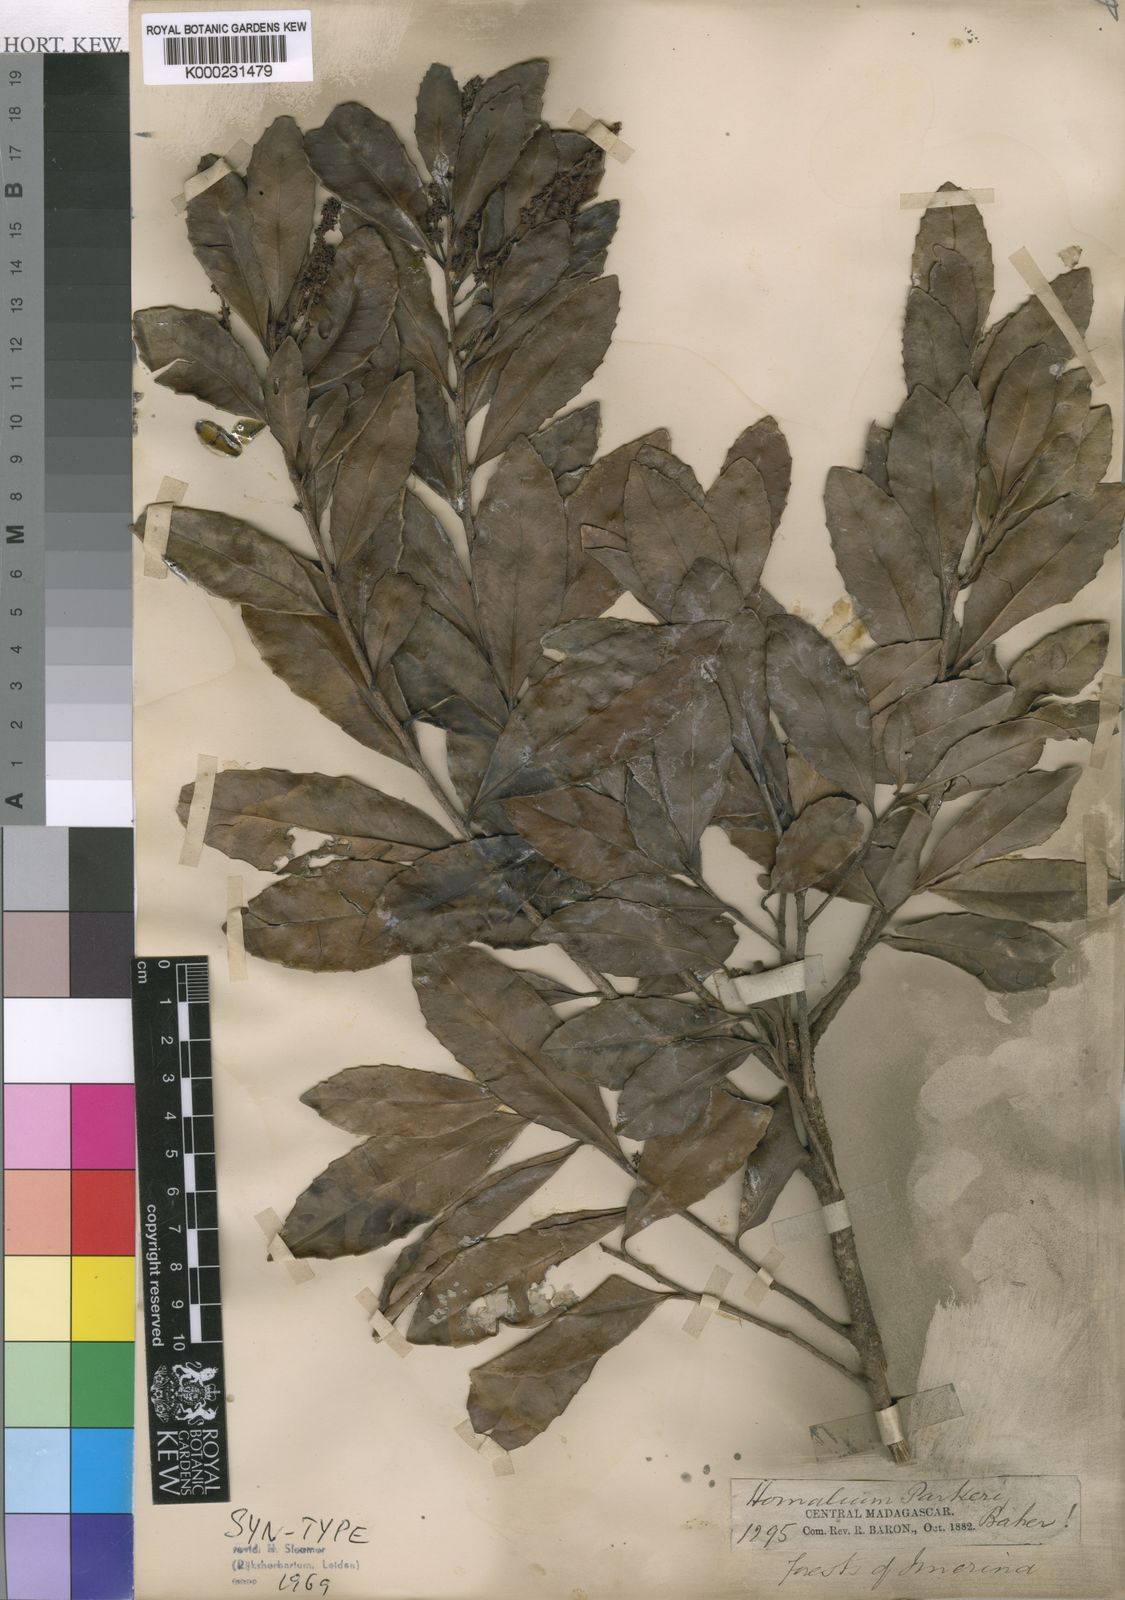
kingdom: Plantae
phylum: Tracheophyta
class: Magnoliopsida
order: Malpighiales
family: Salicaceae
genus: Homalium
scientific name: Homalium parkeri
